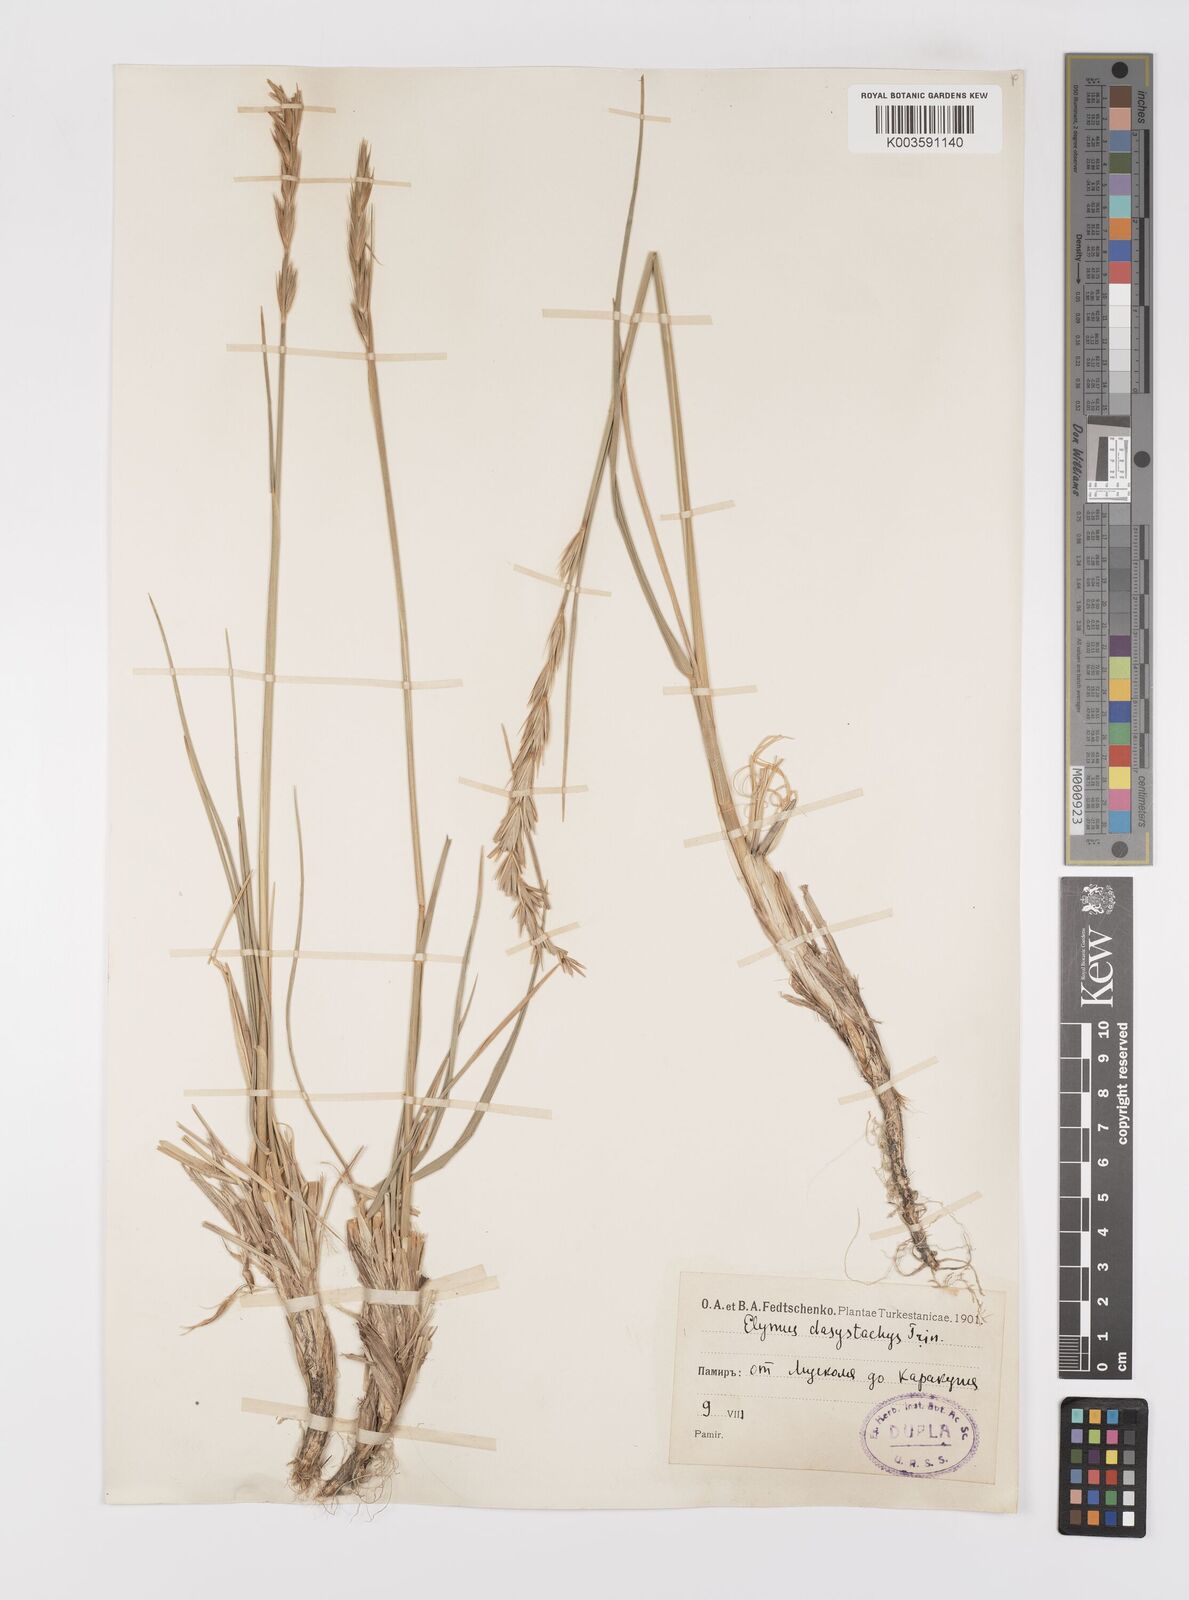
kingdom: Plantae
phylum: Tracheophyta
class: Liliopsida
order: Poales
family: Poaceae
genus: Leymus
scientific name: Leymus secalinus
